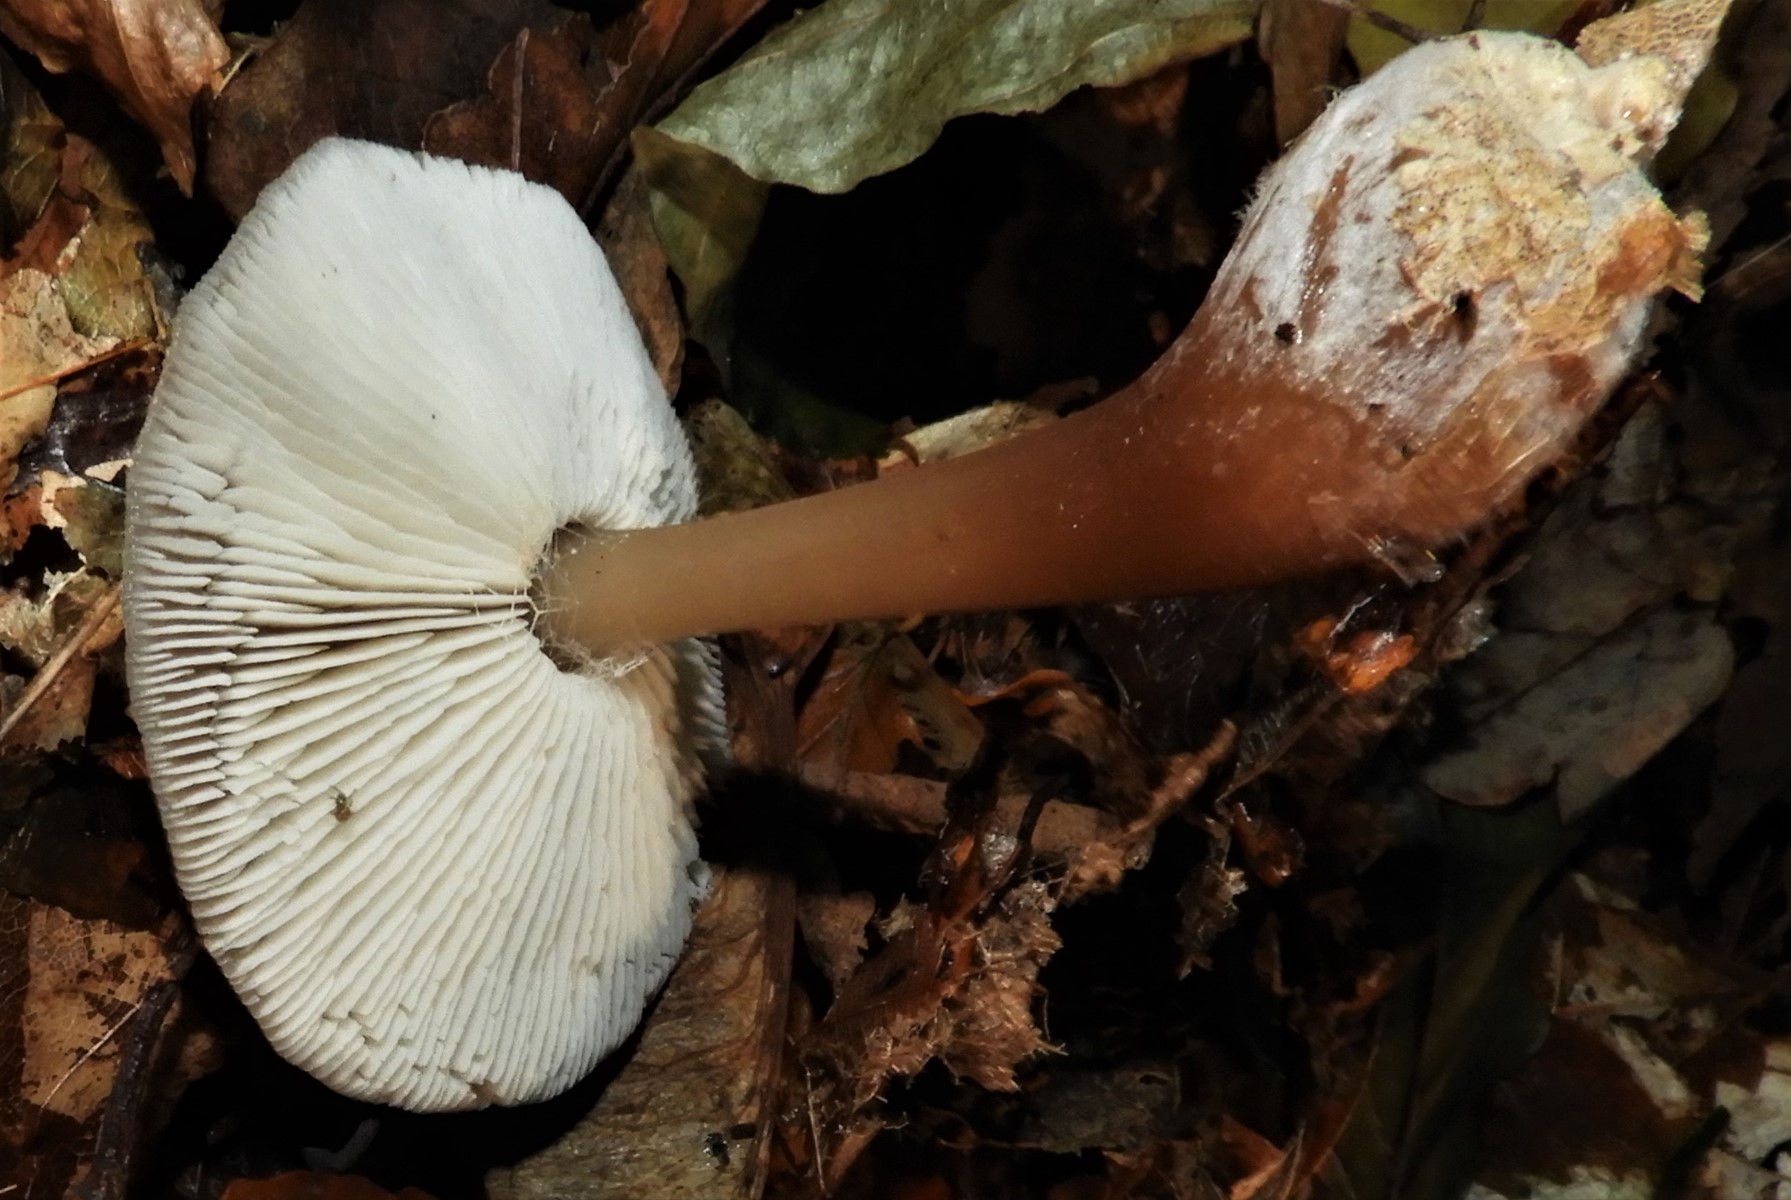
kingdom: Fungi
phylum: Basidiomycota
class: Agaricomycetes
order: Agaricales
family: Omphalotaceae
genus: Rhodocollybia
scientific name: Rhodocollybia butyracea
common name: keglestokket fladhat
